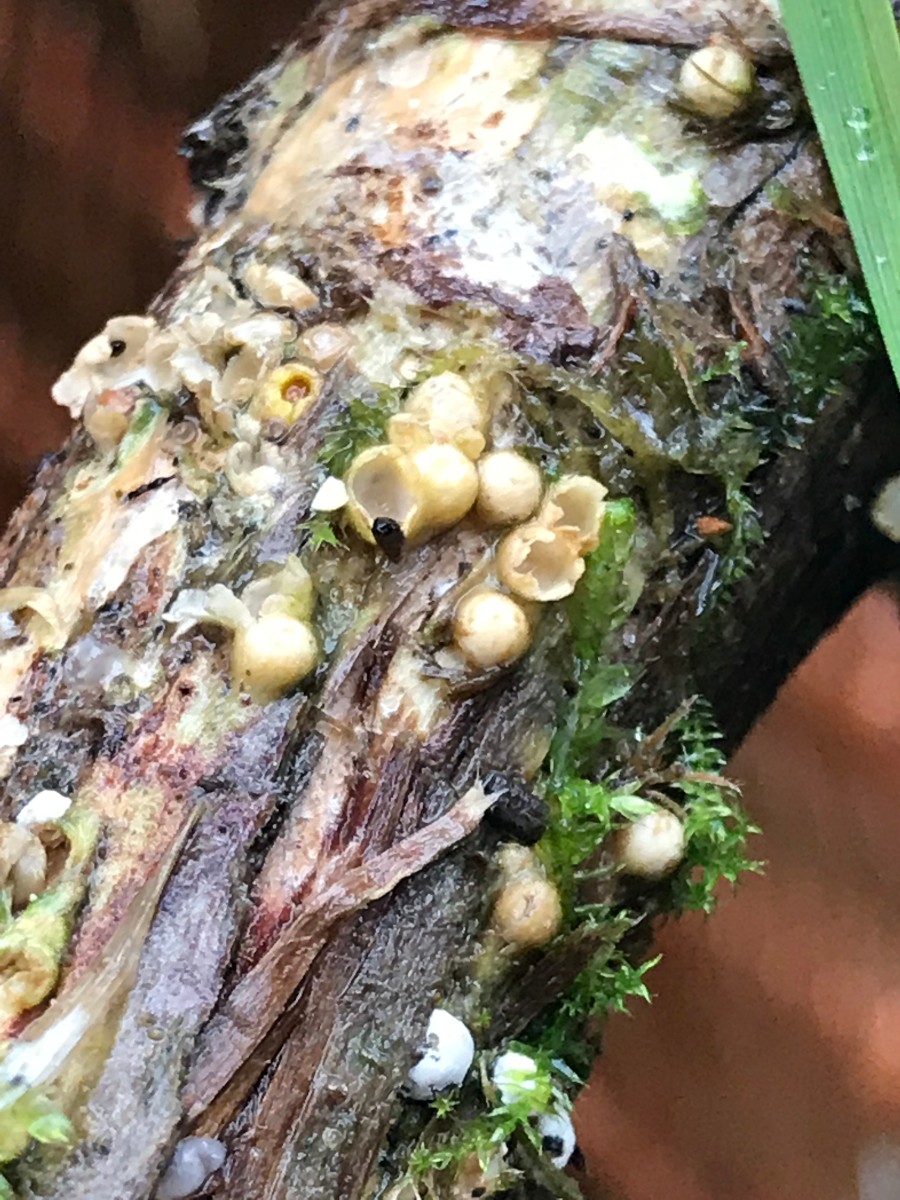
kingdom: Fungi
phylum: Basidiomycota
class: Agaricomycetes
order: Geastrales
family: Geastraceae
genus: Sphaerobolus
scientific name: Sphaerobolus stellatus
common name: bombekaster
